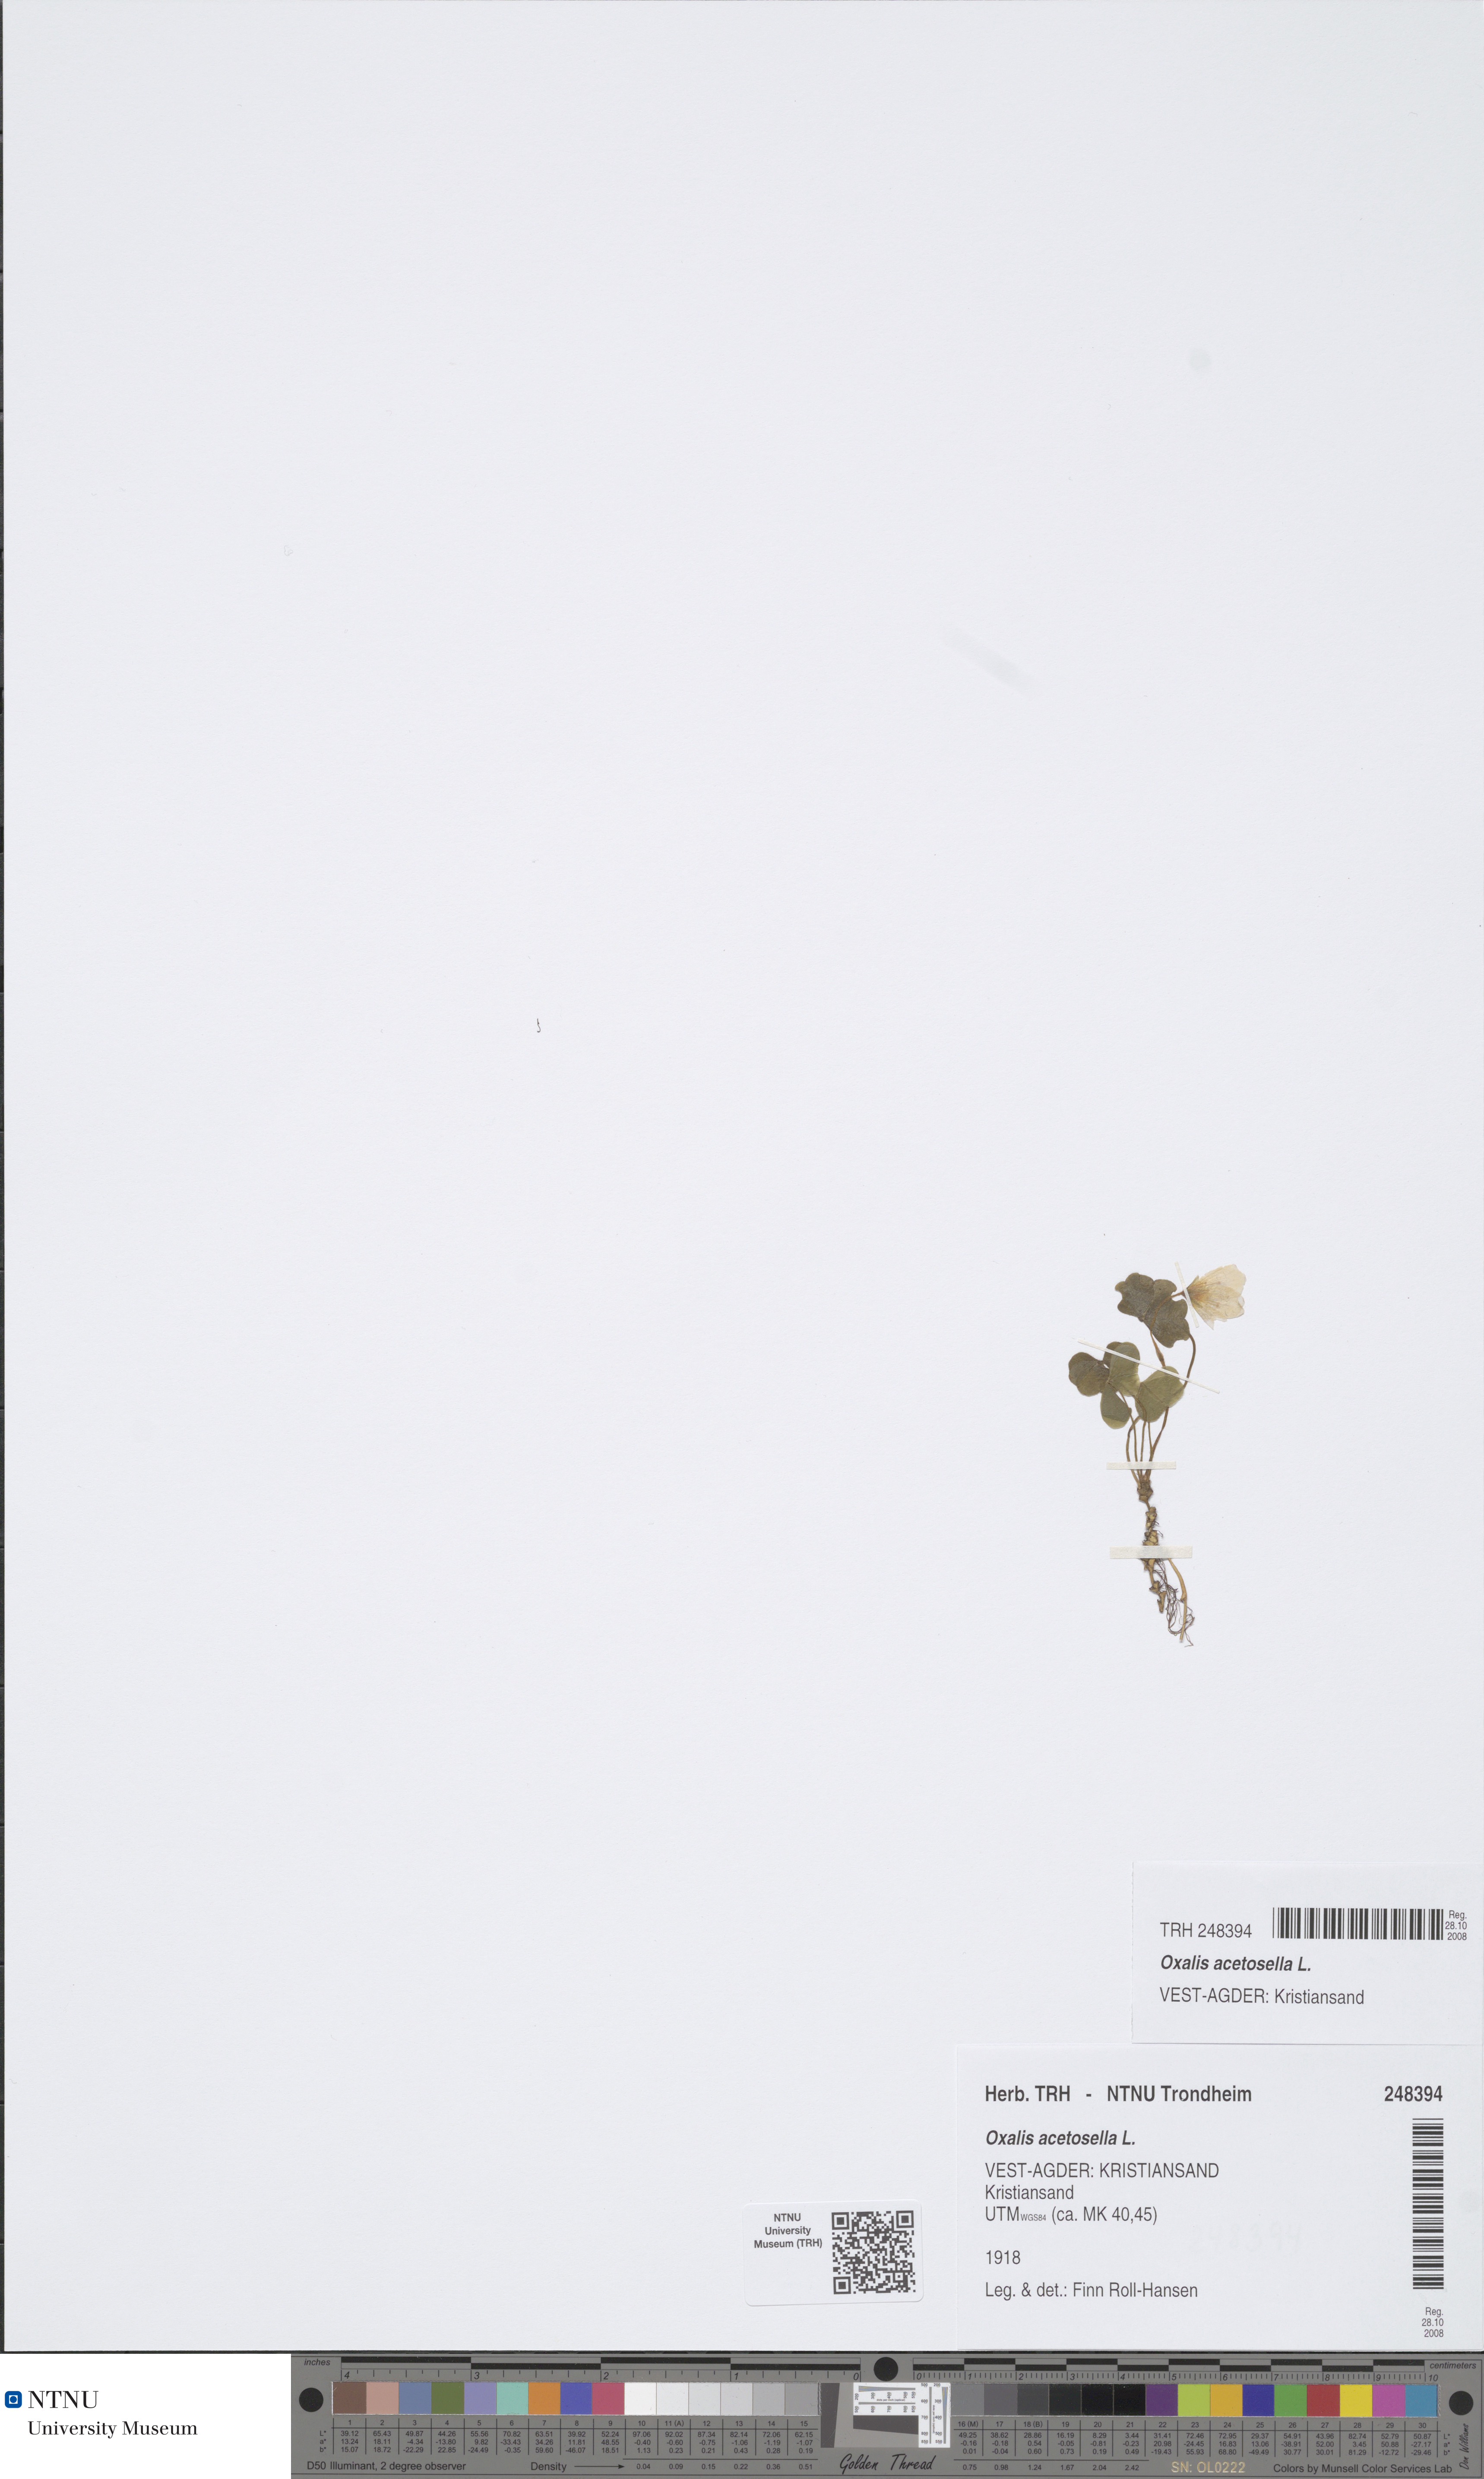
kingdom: Plantae
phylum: Tracheophyta
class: Magnoliopsida
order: Oxalidales
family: Oxalidaceae
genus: Oxalis
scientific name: Oxalis acetosella
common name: Wood-sorrel
